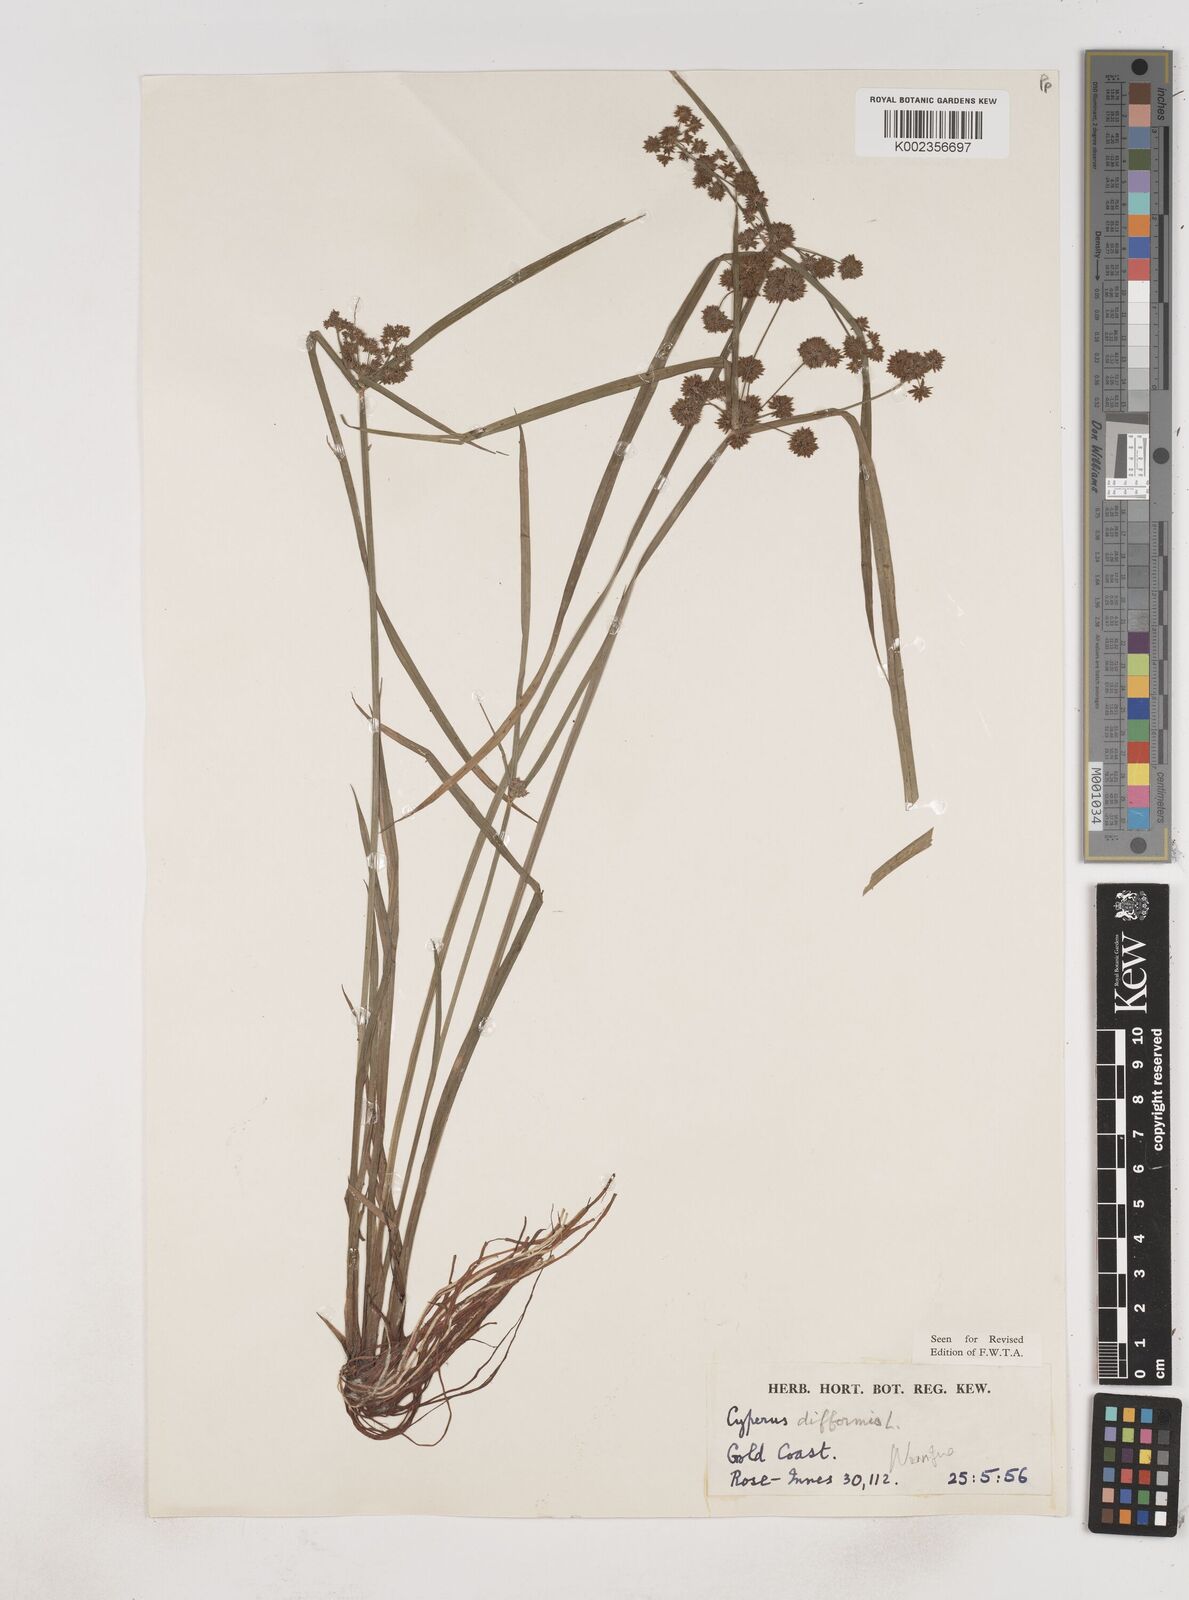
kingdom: Plantae
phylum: Tracheophyta
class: Liliopsida
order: Poales
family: Cyperaceae
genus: Cyperus
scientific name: Cyperus difformis
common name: Variable flatsedge
